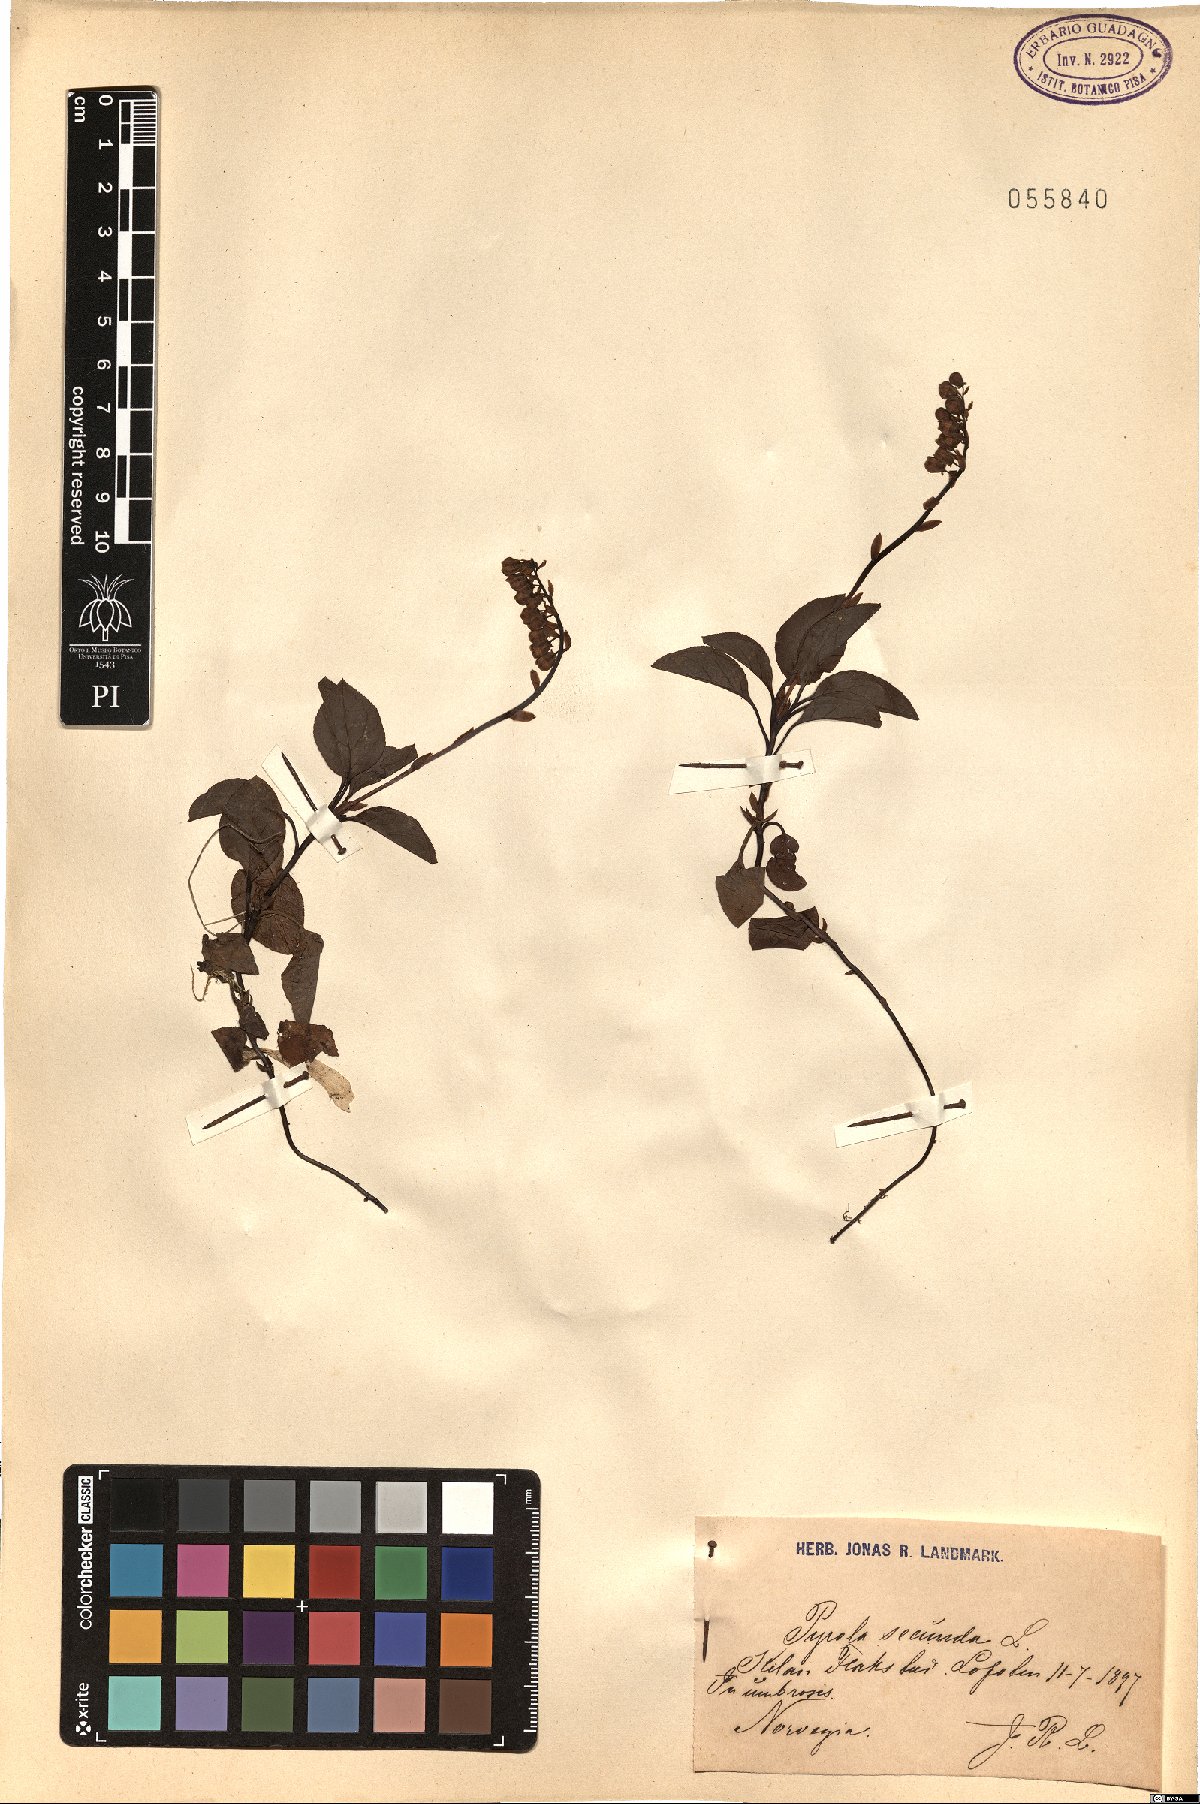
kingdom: Plantae
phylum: Tracheophyta
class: Magnoliopsida
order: Ericales
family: Ericaceae
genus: Orthilia
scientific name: Orthilia secunda
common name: One-sided orthilia
